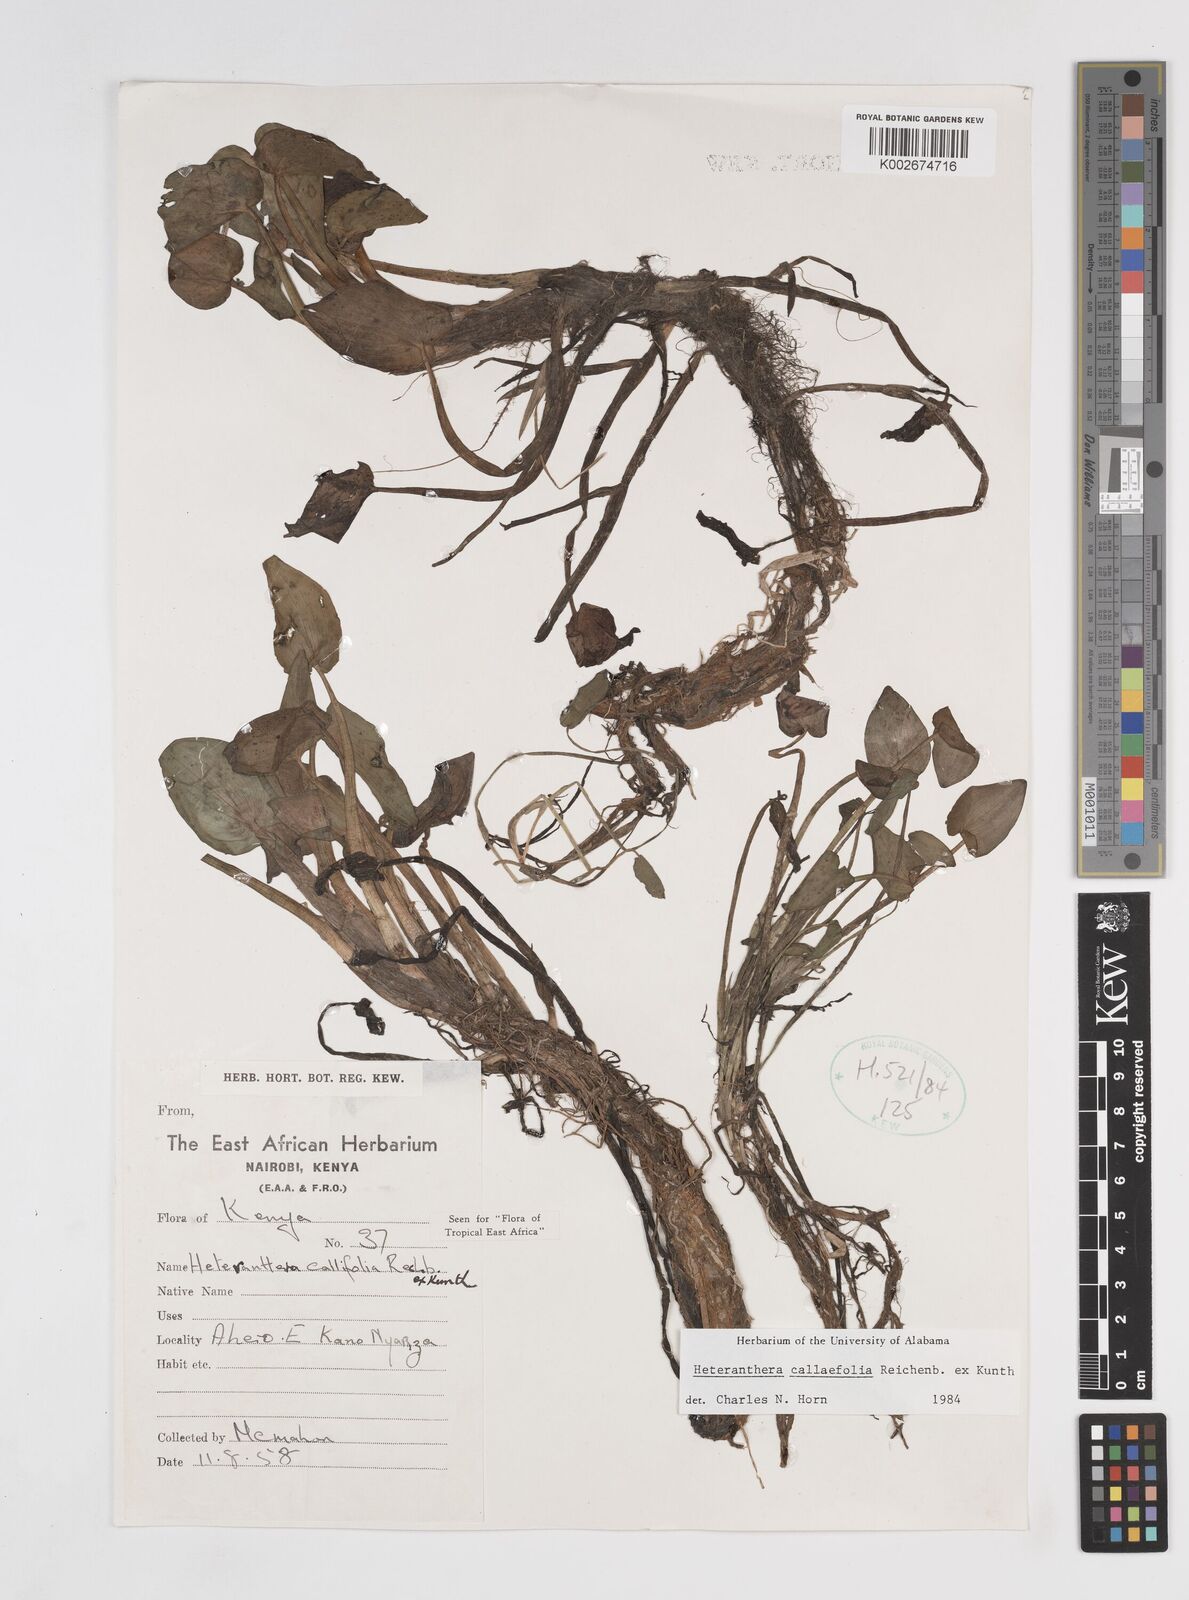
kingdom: Plantae
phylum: Tracheophyta
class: Liliopsida
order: Commelinales
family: Pontederiaceae
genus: Heteranthera
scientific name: Heteranthera callifolia
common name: Mud plantain
